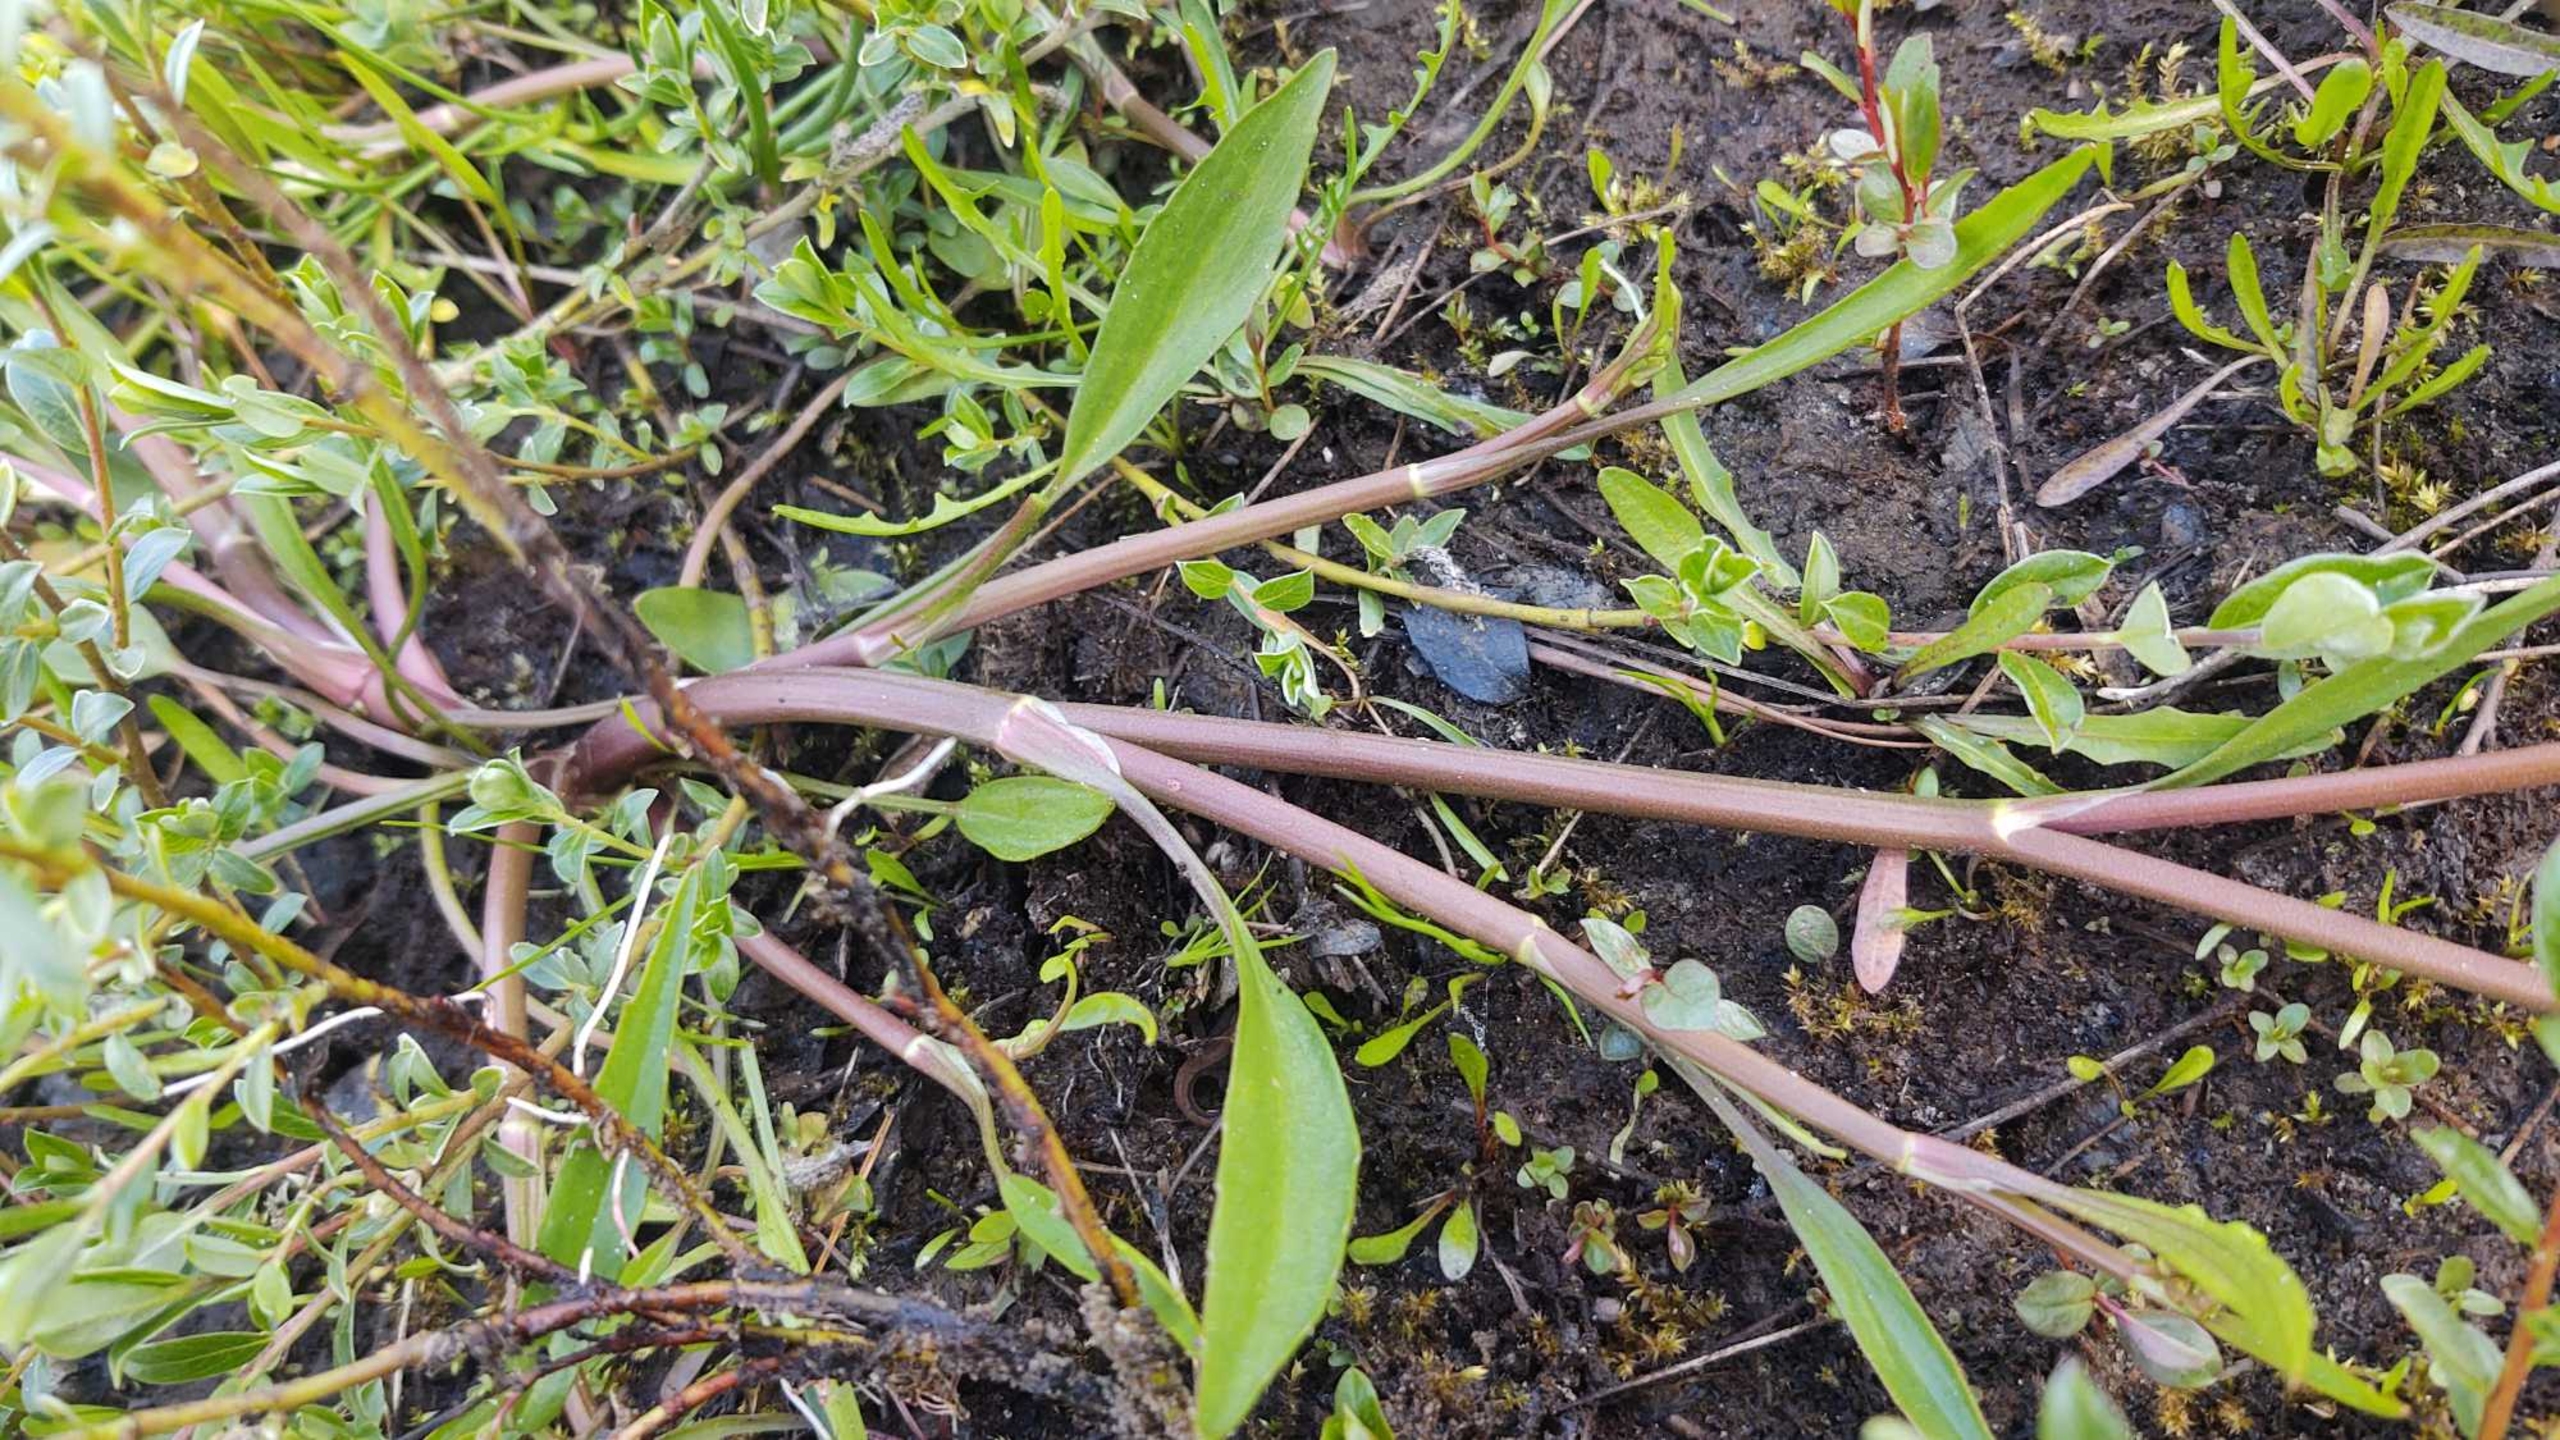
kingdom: Plantae
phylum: Tracheophyta
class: Magnoliopsida
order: Ranunculales
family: Ranunculaceae
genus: Ranunculus
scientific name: Ranunculus flammula
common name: Kær-ranunkel
